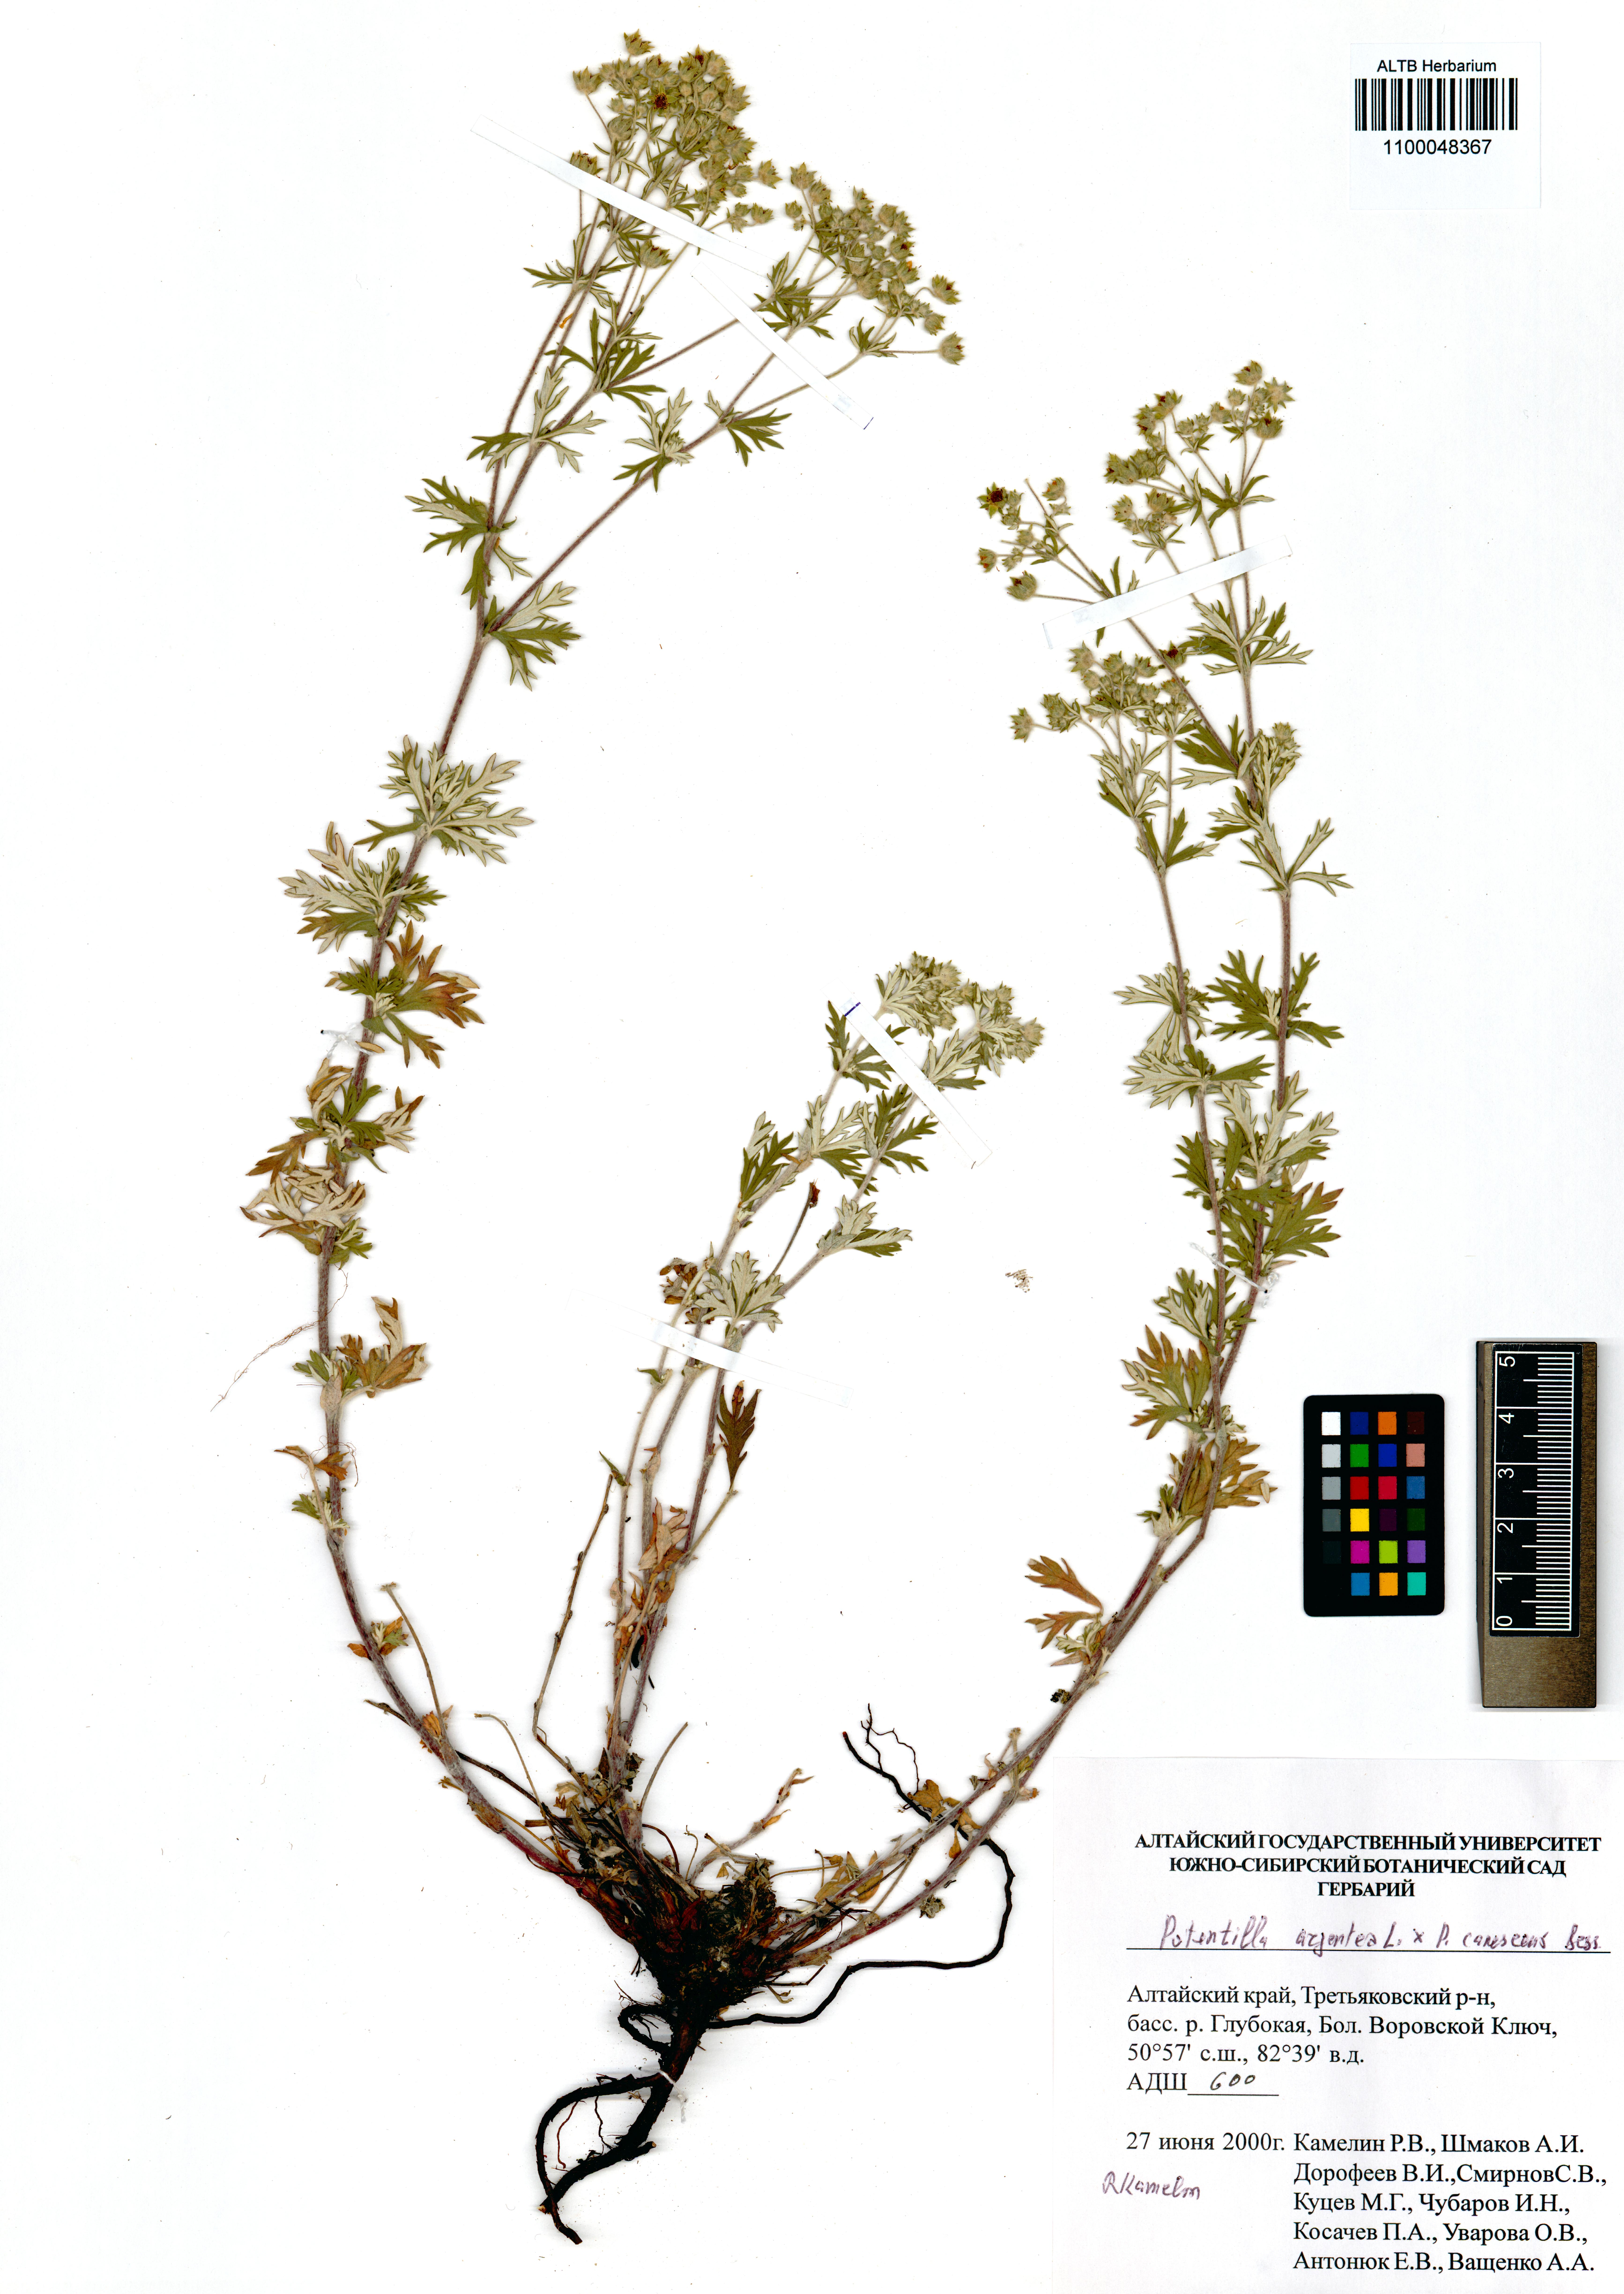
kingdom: Plantae
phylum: Tracheophyta
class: Magnoliopsida
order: Rosales
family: Rosaceae
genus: Potentilla
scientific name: Potentilla argentea
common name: Hoary cinquefoil
